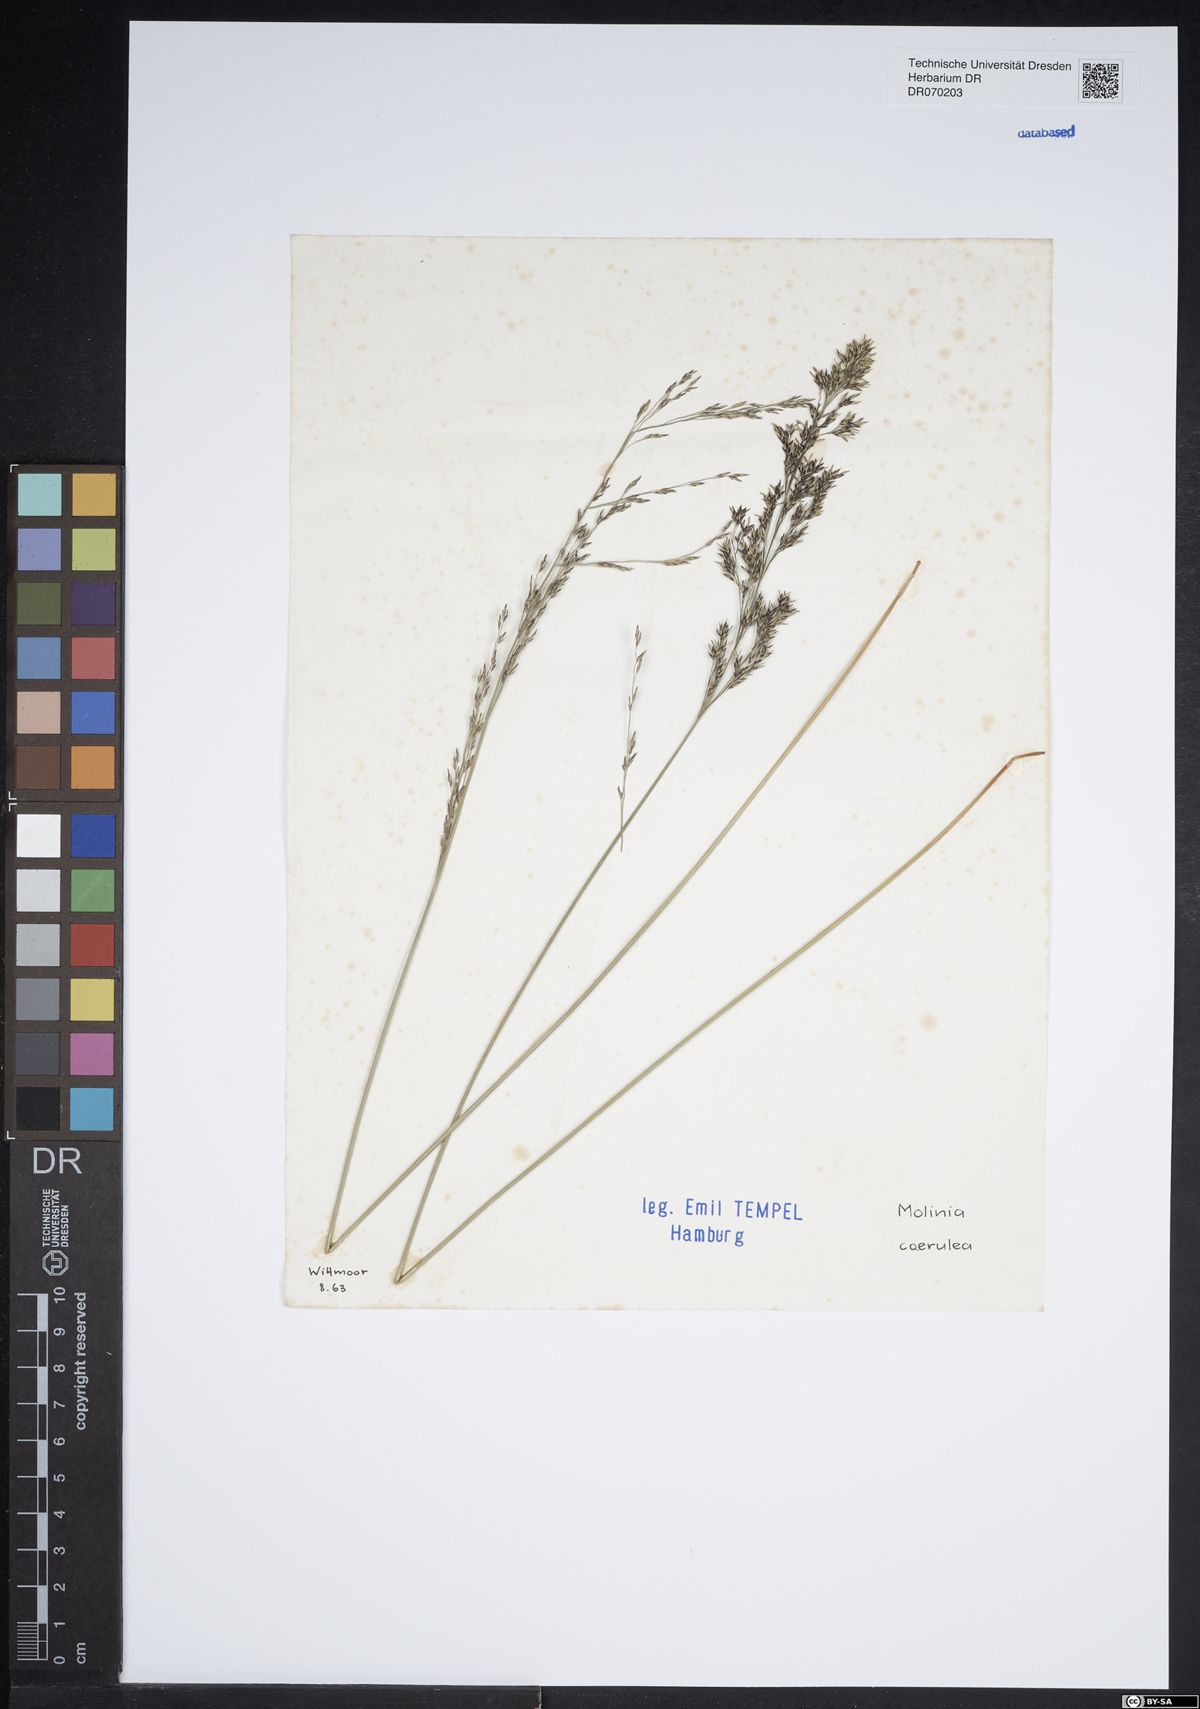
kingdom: Plantae
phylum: Tracheophyta
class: Liliopsida
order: Poales
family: Poaceae
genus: Molinia
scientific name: Molinia caerulea
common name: Purple moor-grass
